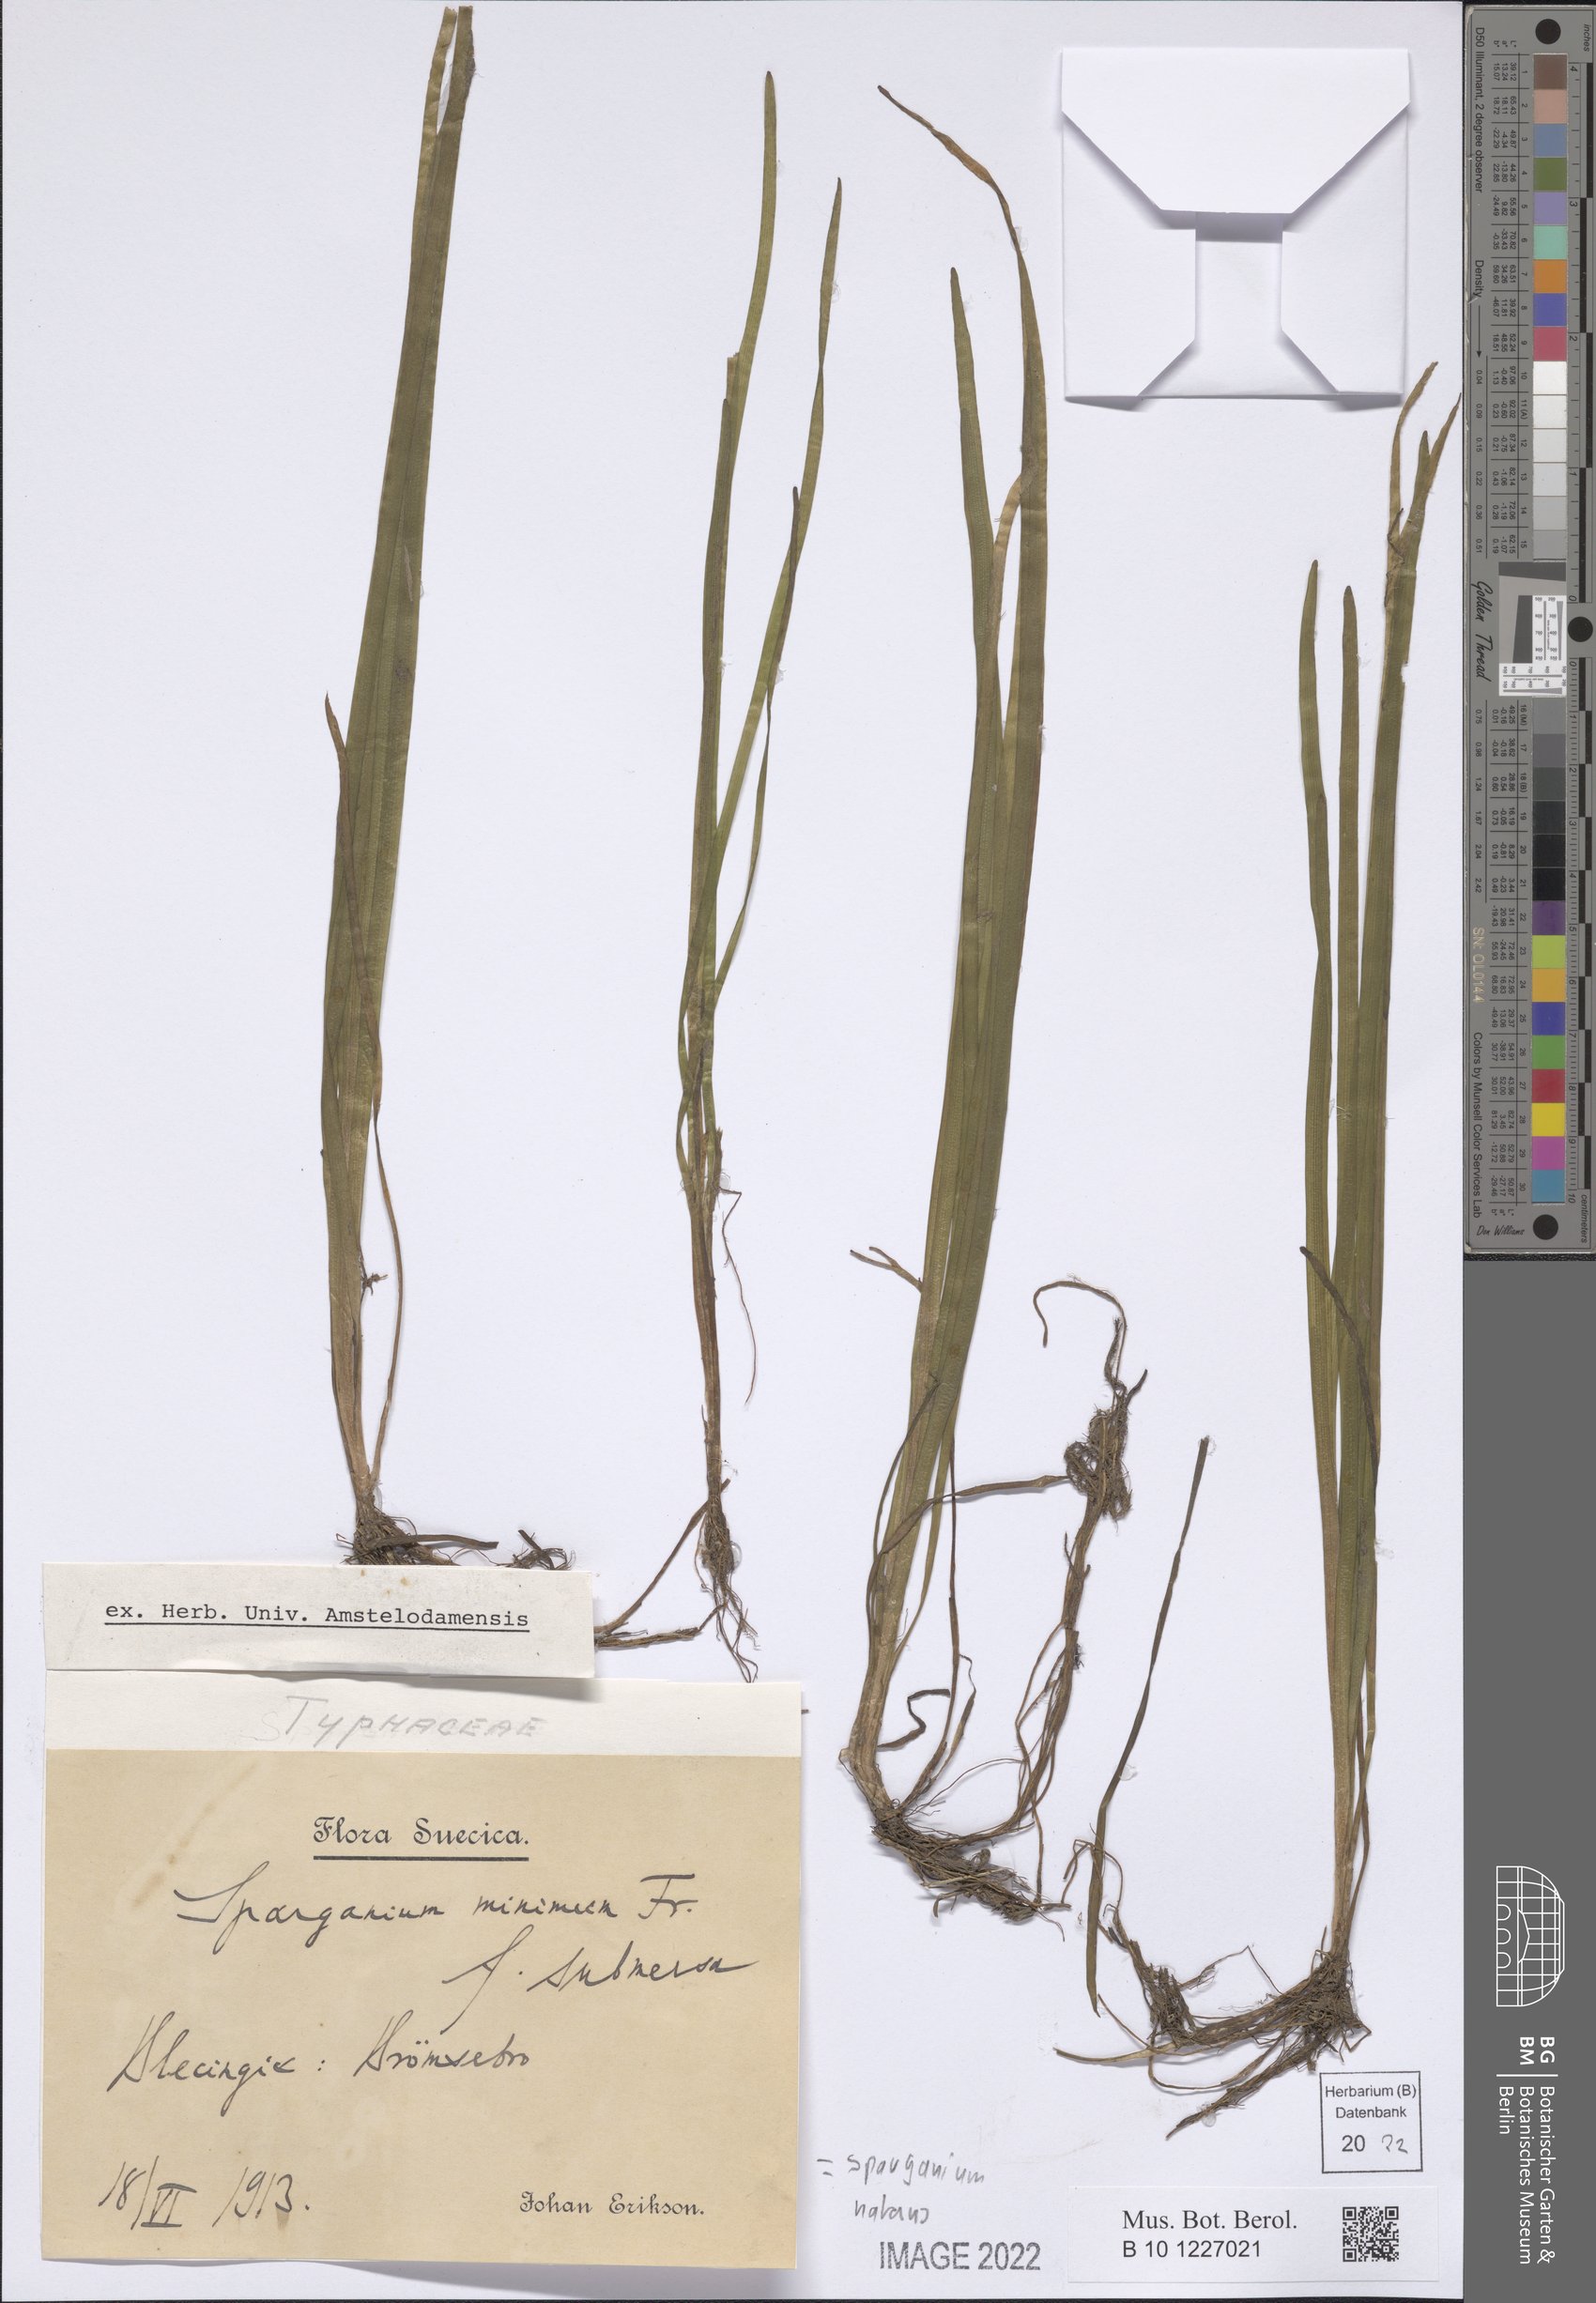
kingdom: Plantae
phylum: Tracheophyta
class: Liliopsida
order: Poales
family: Typhaceae
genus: Sparganium
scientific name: Sparganium natans
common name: Least bur-reed
